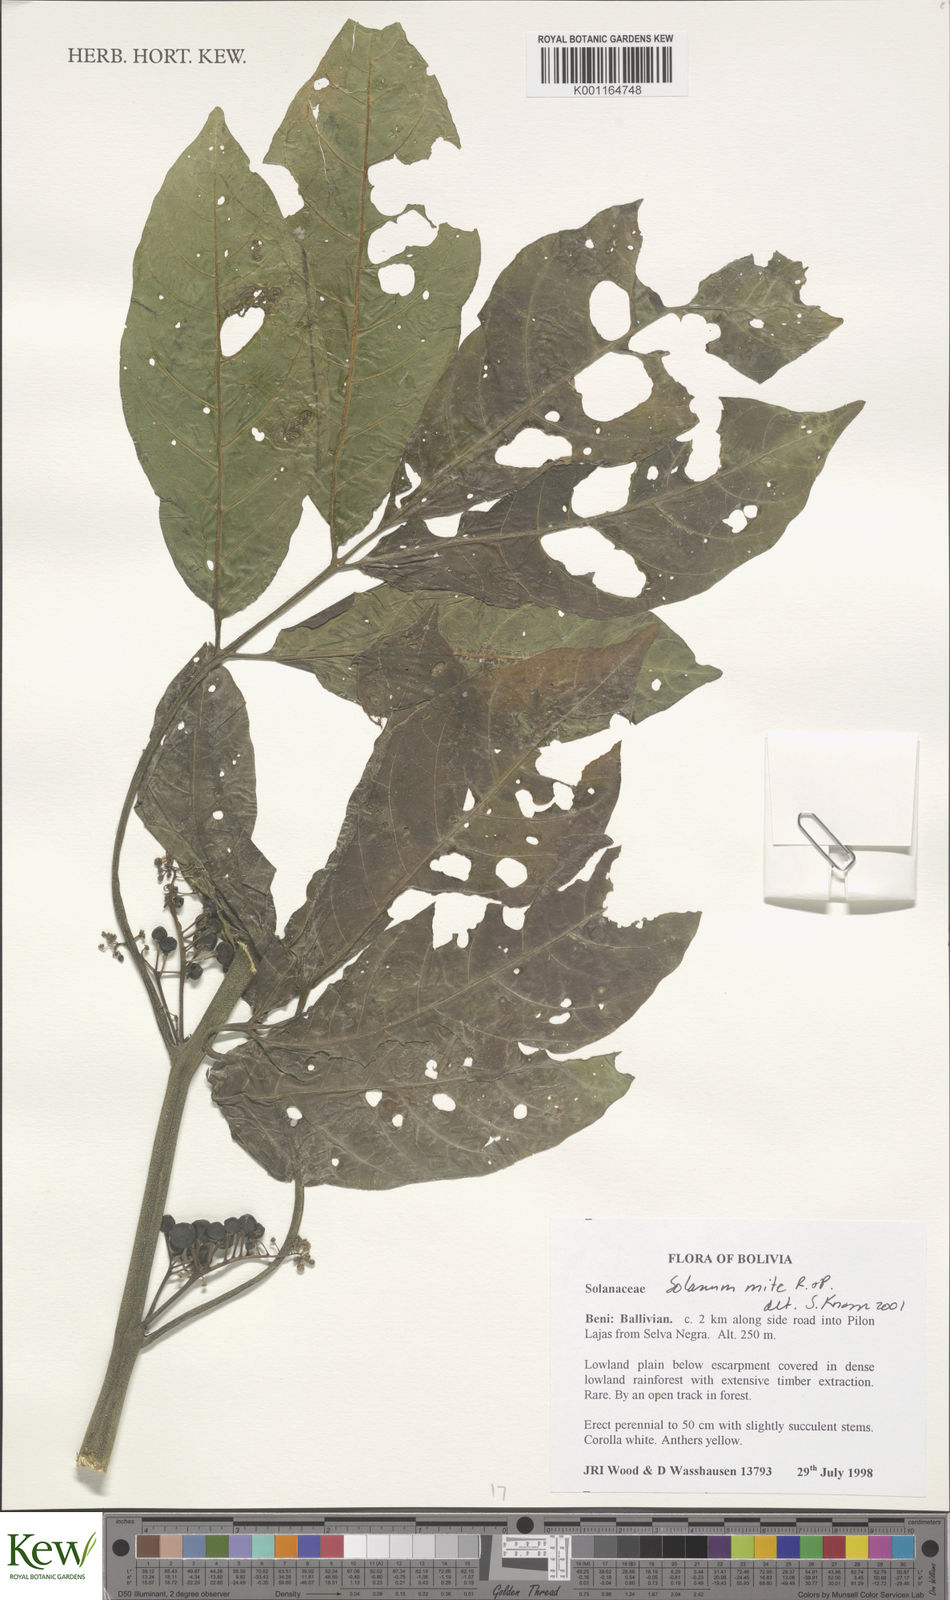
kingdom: Plantae
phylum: Tracheophyta
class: Magnoliopsida
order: Solanales
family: Solanaceae
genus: Solanum
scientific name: Solanum mite
